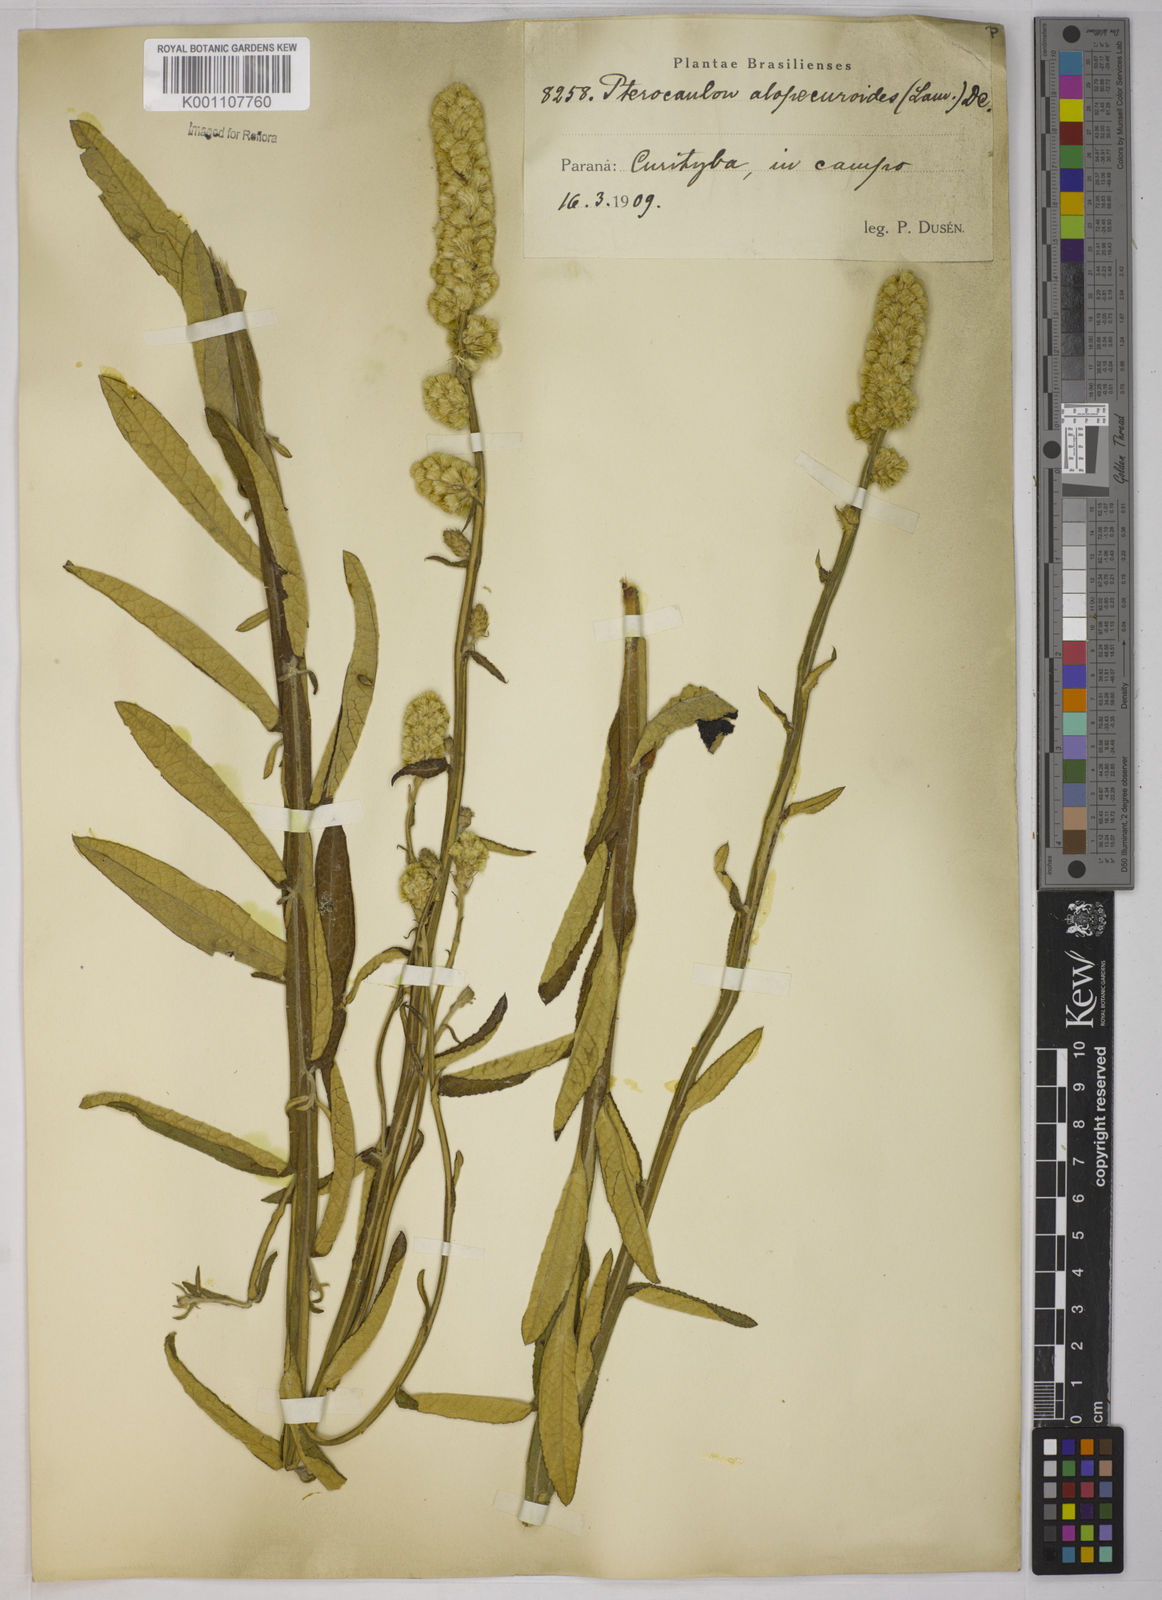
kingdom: Plantae
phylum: Tracheophyta
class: Magnoliopsida
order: Asterales
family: Asteraceae
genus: Pterocaulon
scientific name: Pterocaulon alopecuroides
